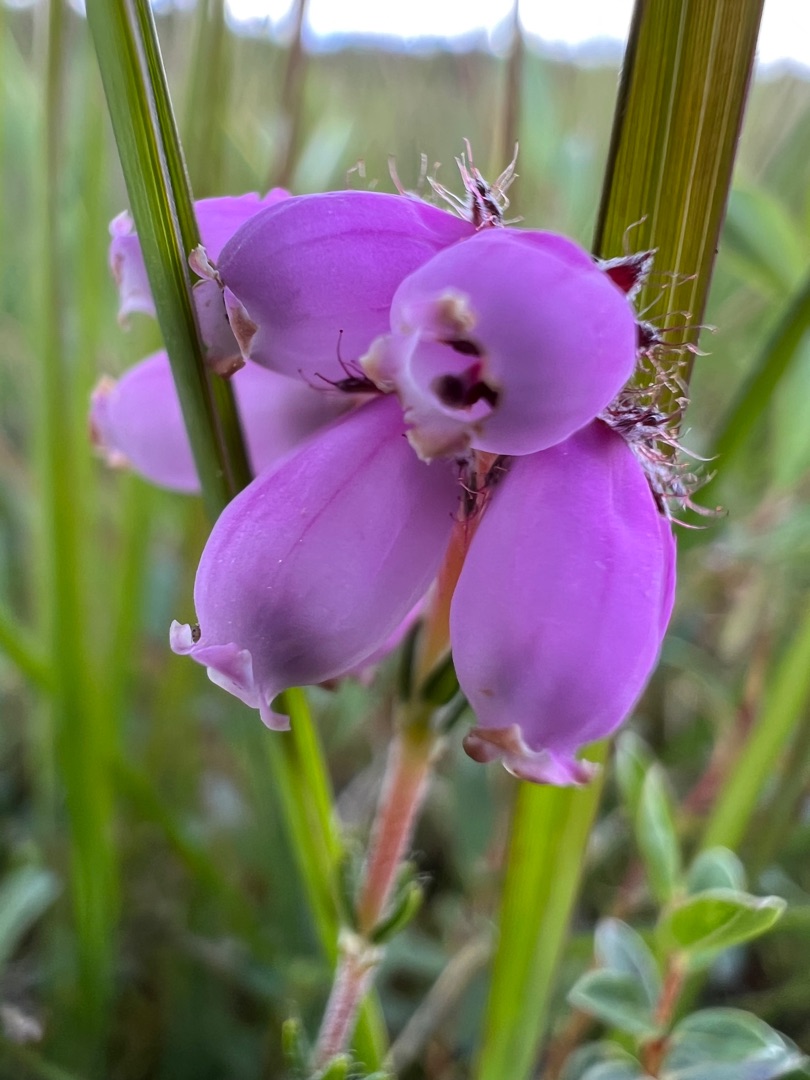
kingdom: Plantae
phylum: Tracheophyta
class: Magnoliopsida
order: Ericales
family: Ericaceae
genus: Erica
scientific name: Erica tetralix
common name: Klokkelyng
